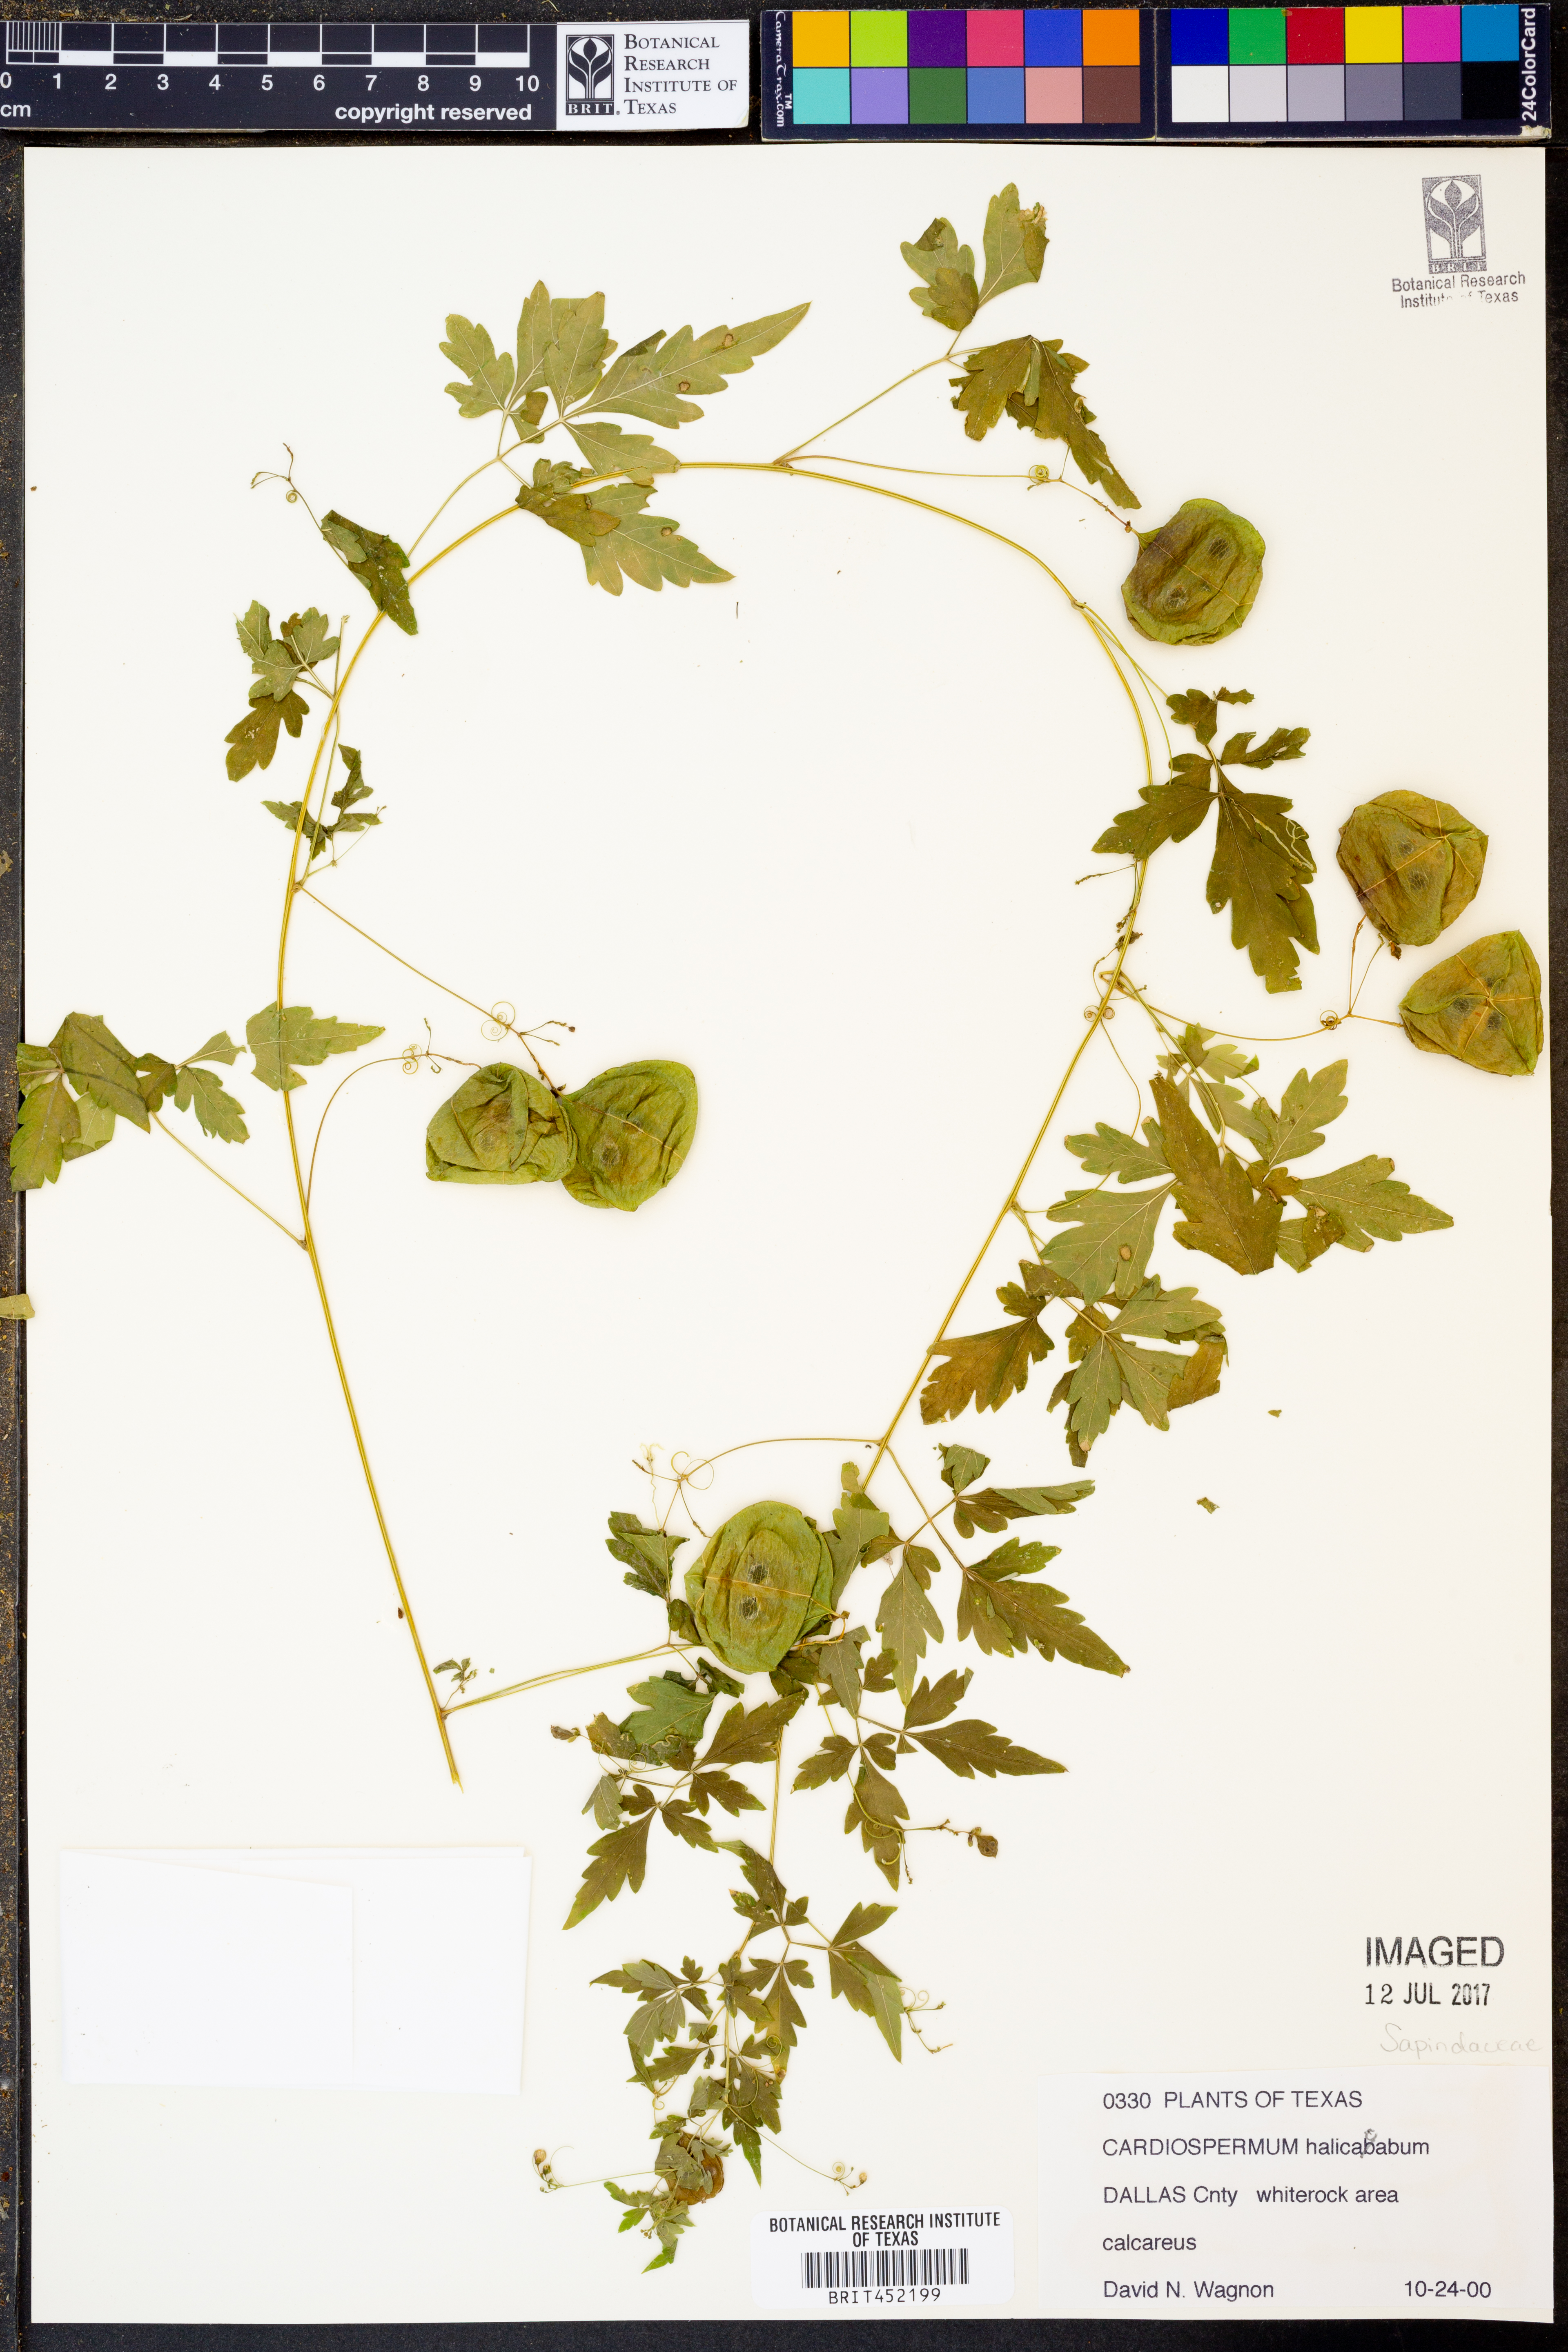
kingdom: Plantae
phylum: Tracheophyta
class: Magnoliopsida
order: Sapindales
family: Sapindaceae
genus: Cardiospermum
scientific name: Cardiospermum halicacabum
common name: Balloon vine
